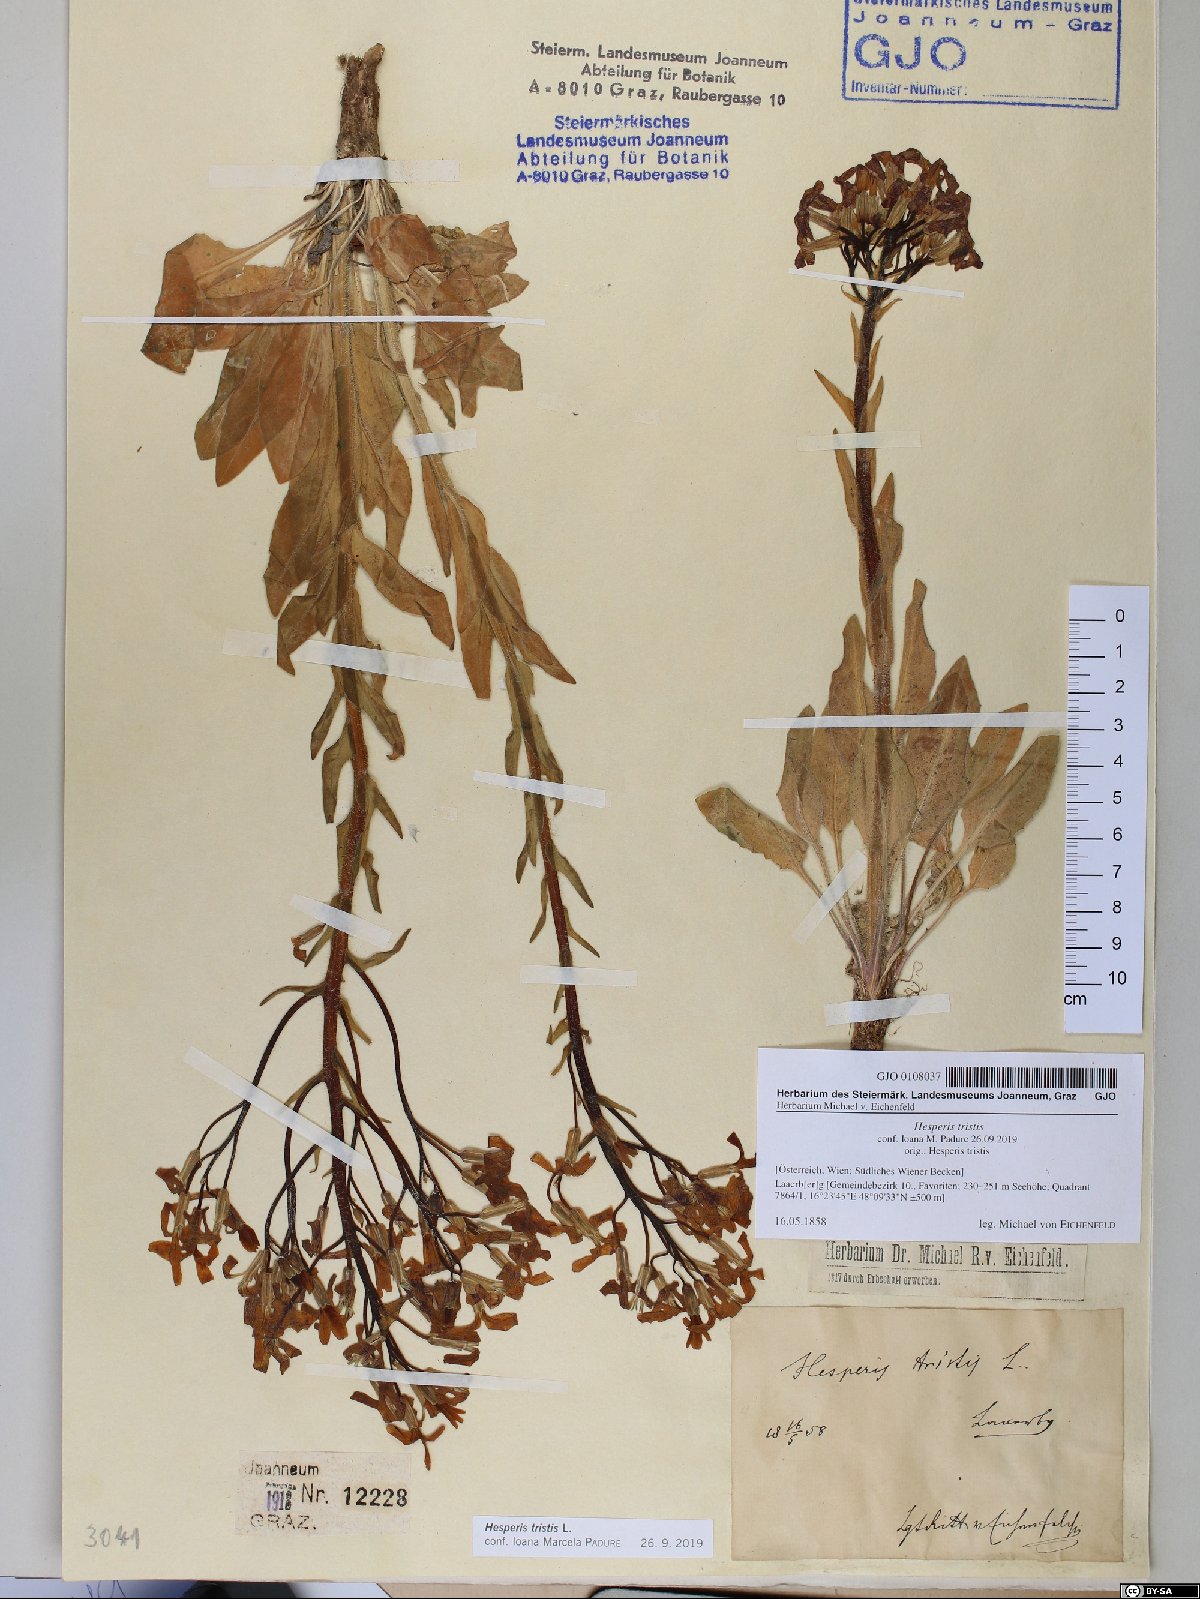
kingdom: Plantae
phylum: Tracheophyta
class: Magnoliopsida
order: Brassicales
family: Brassicaceae
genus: Hesperis
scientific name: Hesperis tristis
